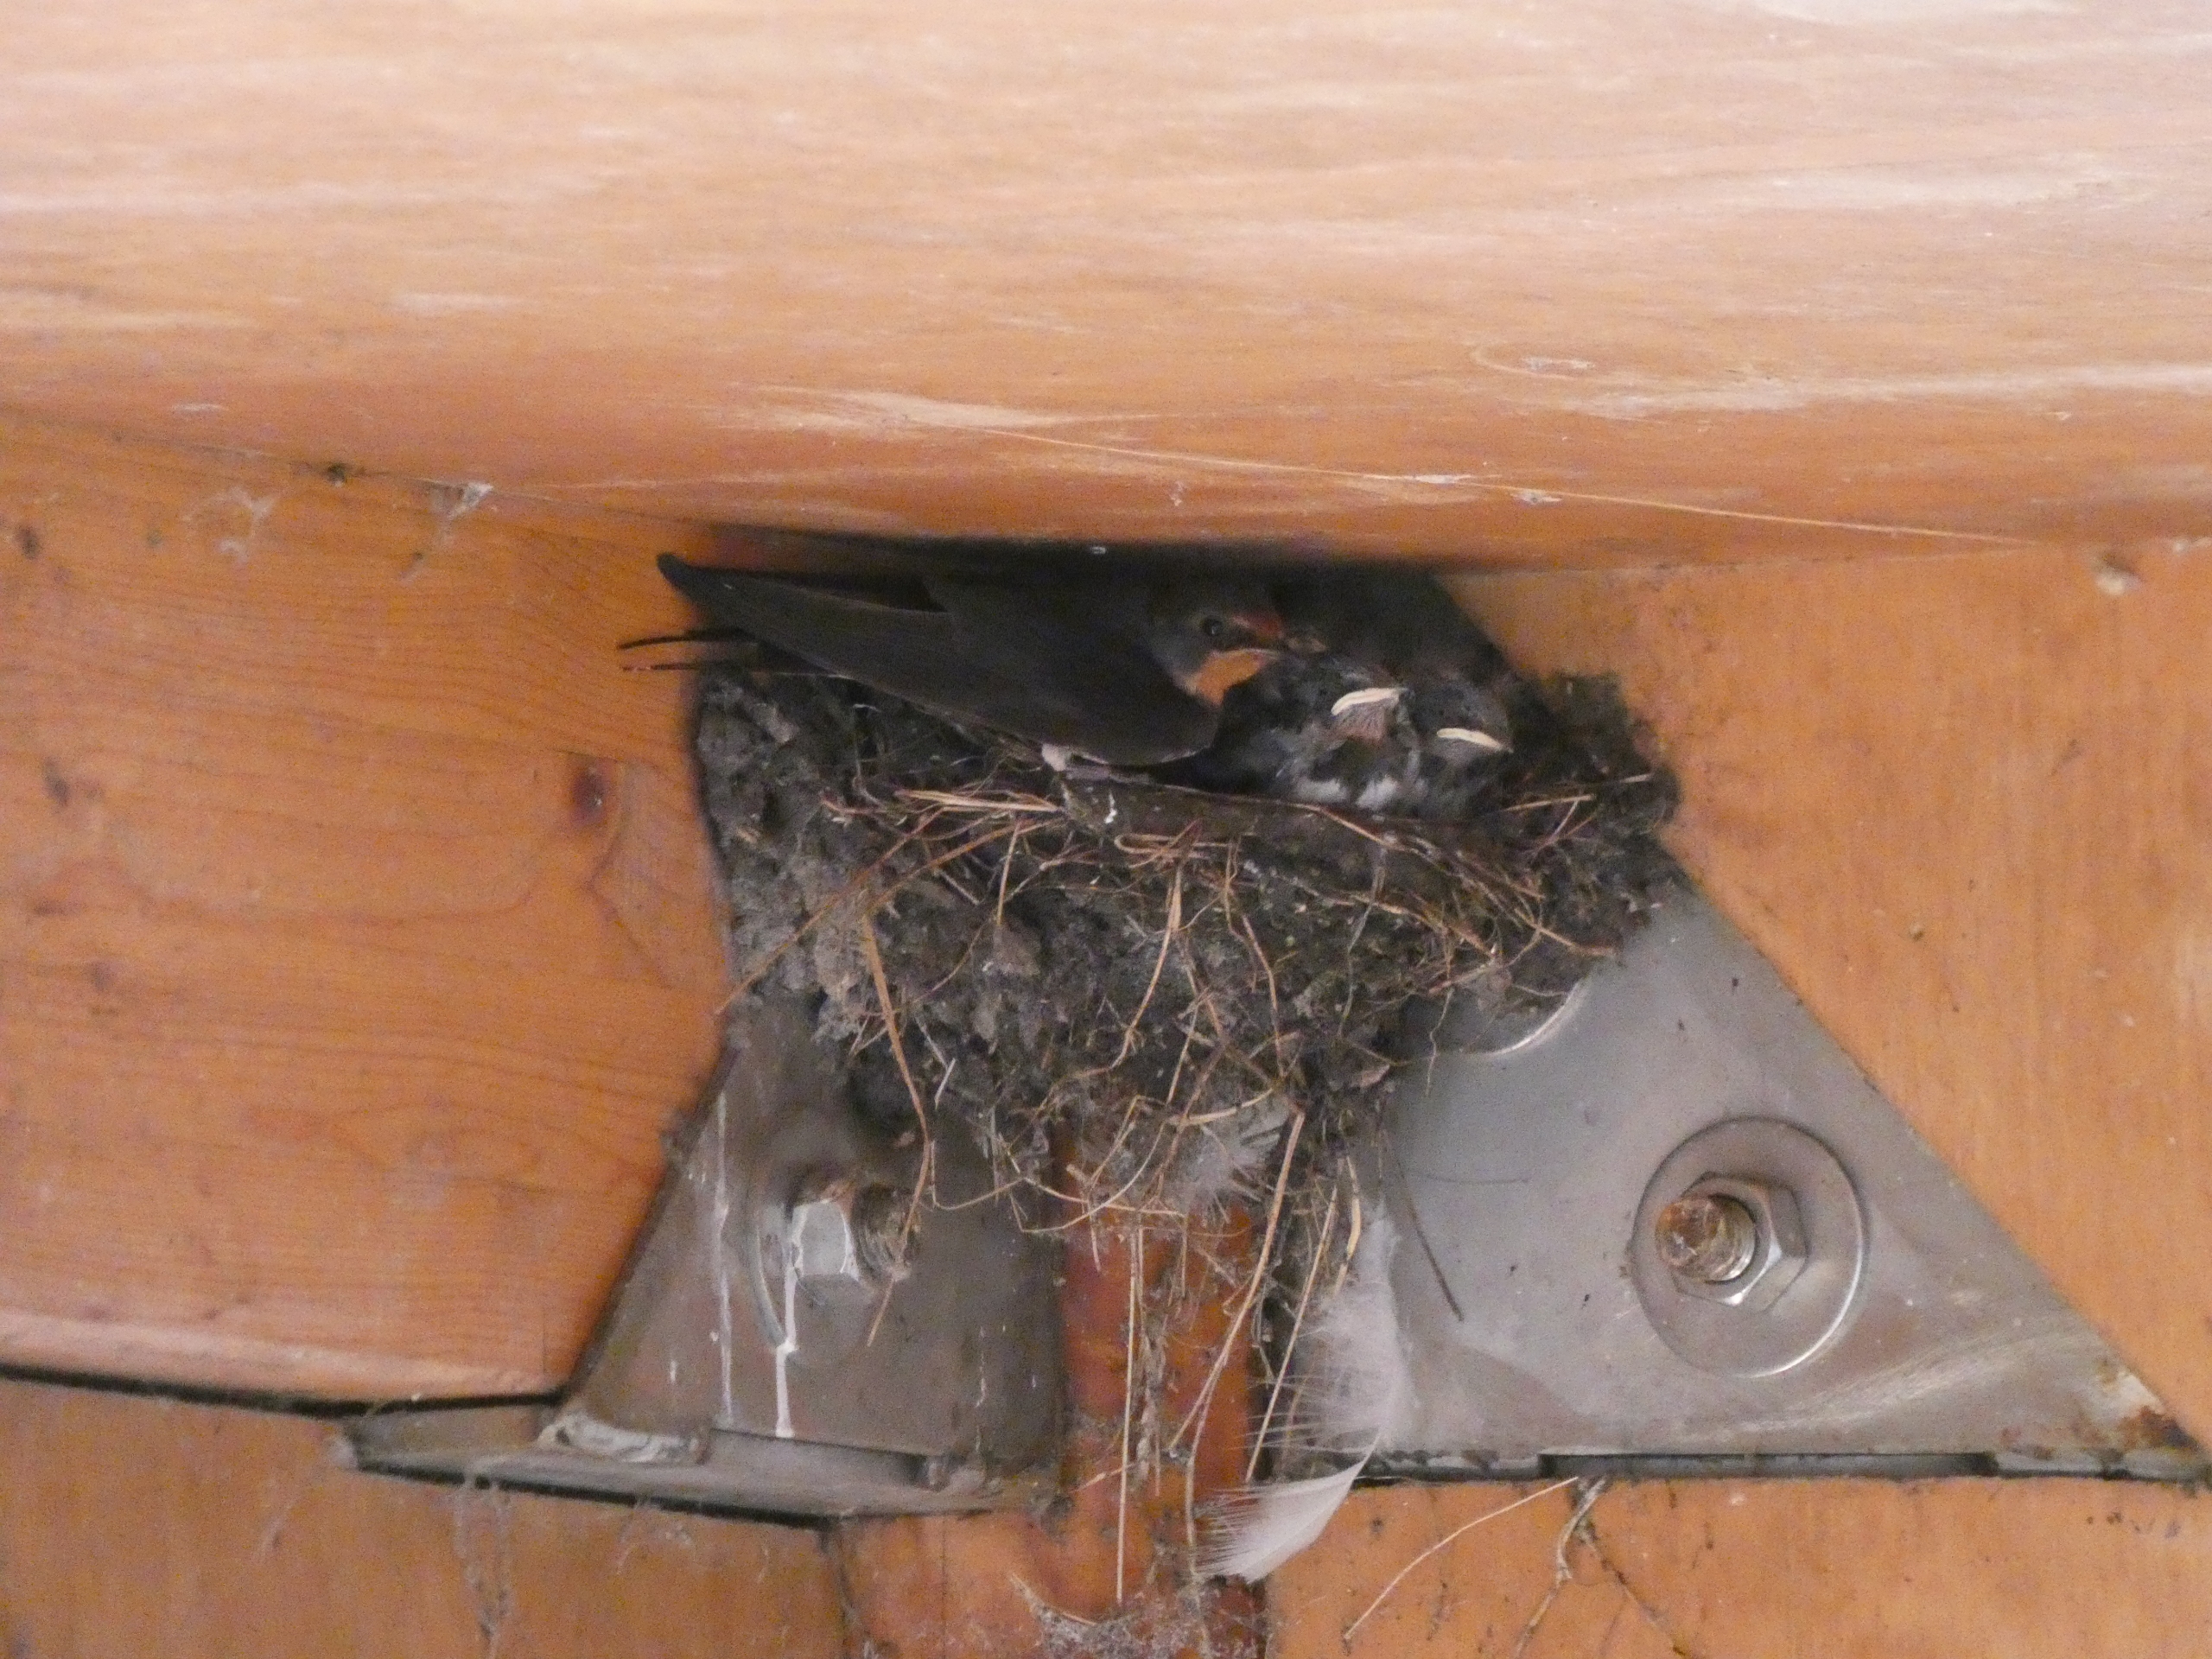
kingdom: Animalia
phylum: Chordata
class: Aves
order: Passeriformes
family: Hirundinidae
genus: Hirundo
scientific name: Hirundo rustica
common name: Landsvale
